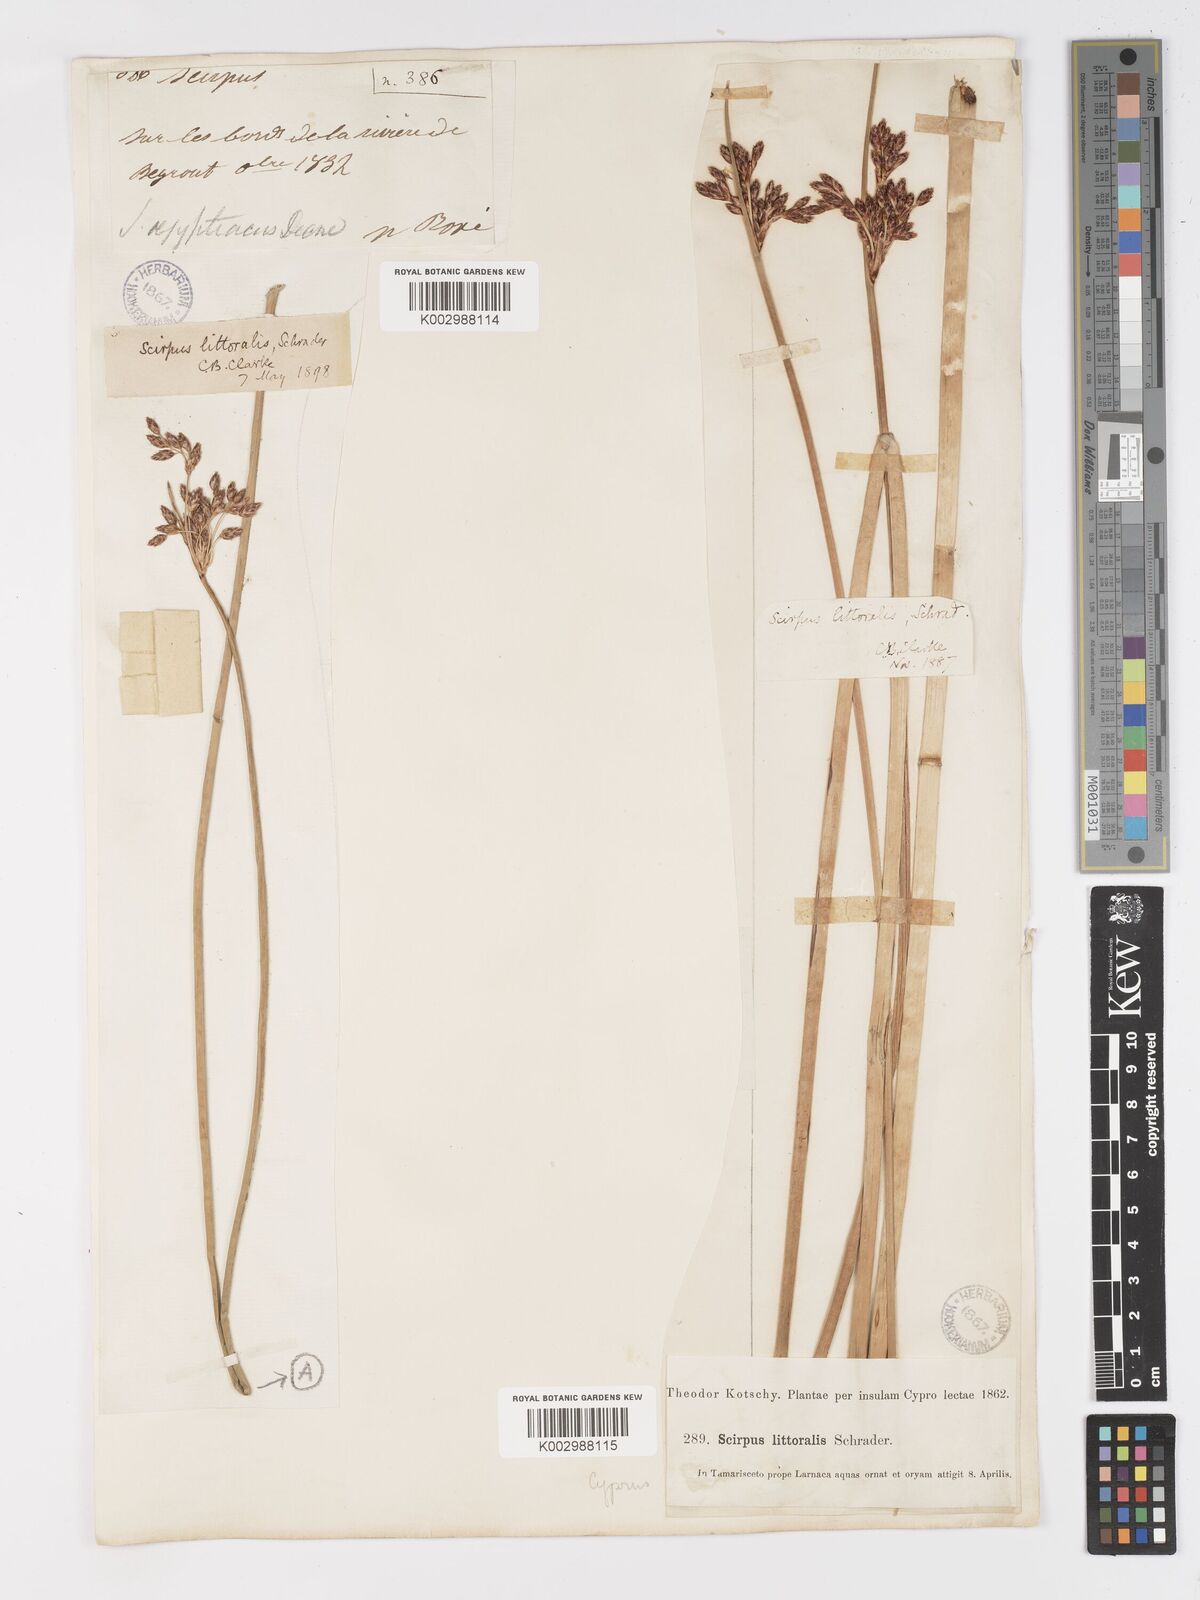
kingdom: Plantae
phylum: Tracheophyta
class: Liliopsida
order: Poales
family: Cyperaceae
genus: Schoenoplectus
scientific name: Schoenoplectus litoralis
